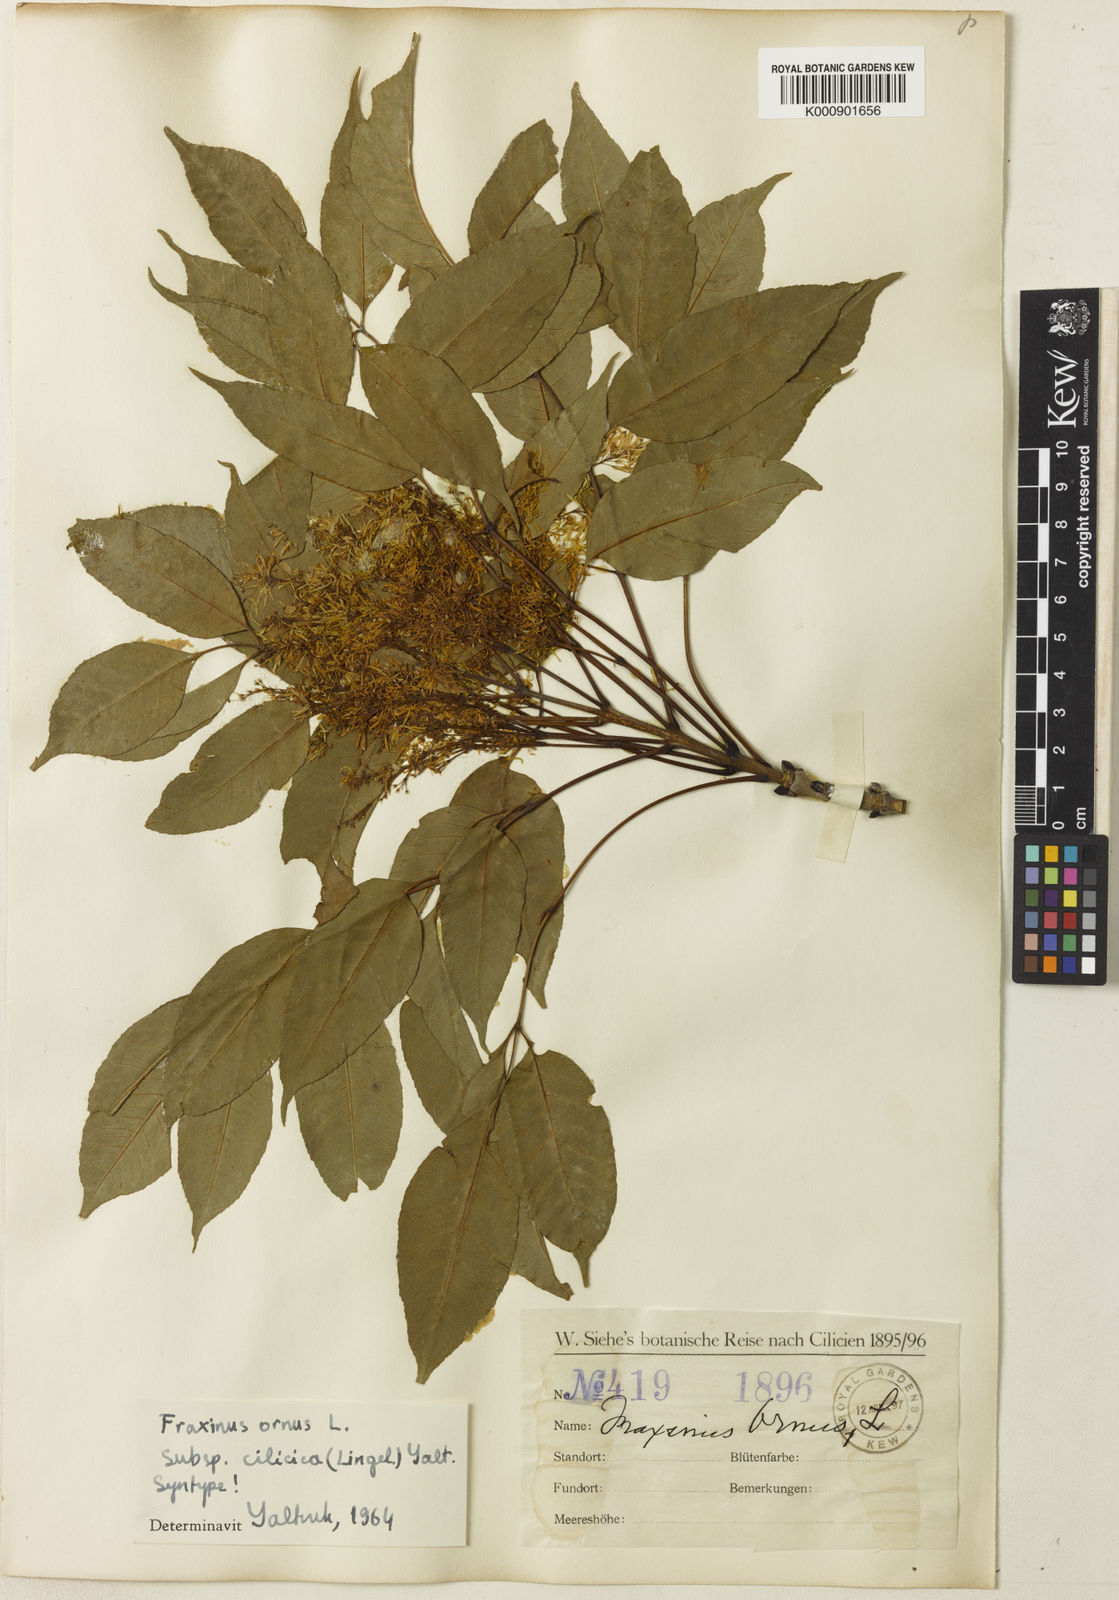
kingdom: Plantae
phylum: Tracheophyta
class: Magnoliopsida
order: Lamiales
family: Oleaceae
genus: Fraxinus
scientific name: Fraxinus ornus
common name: Manna ash
